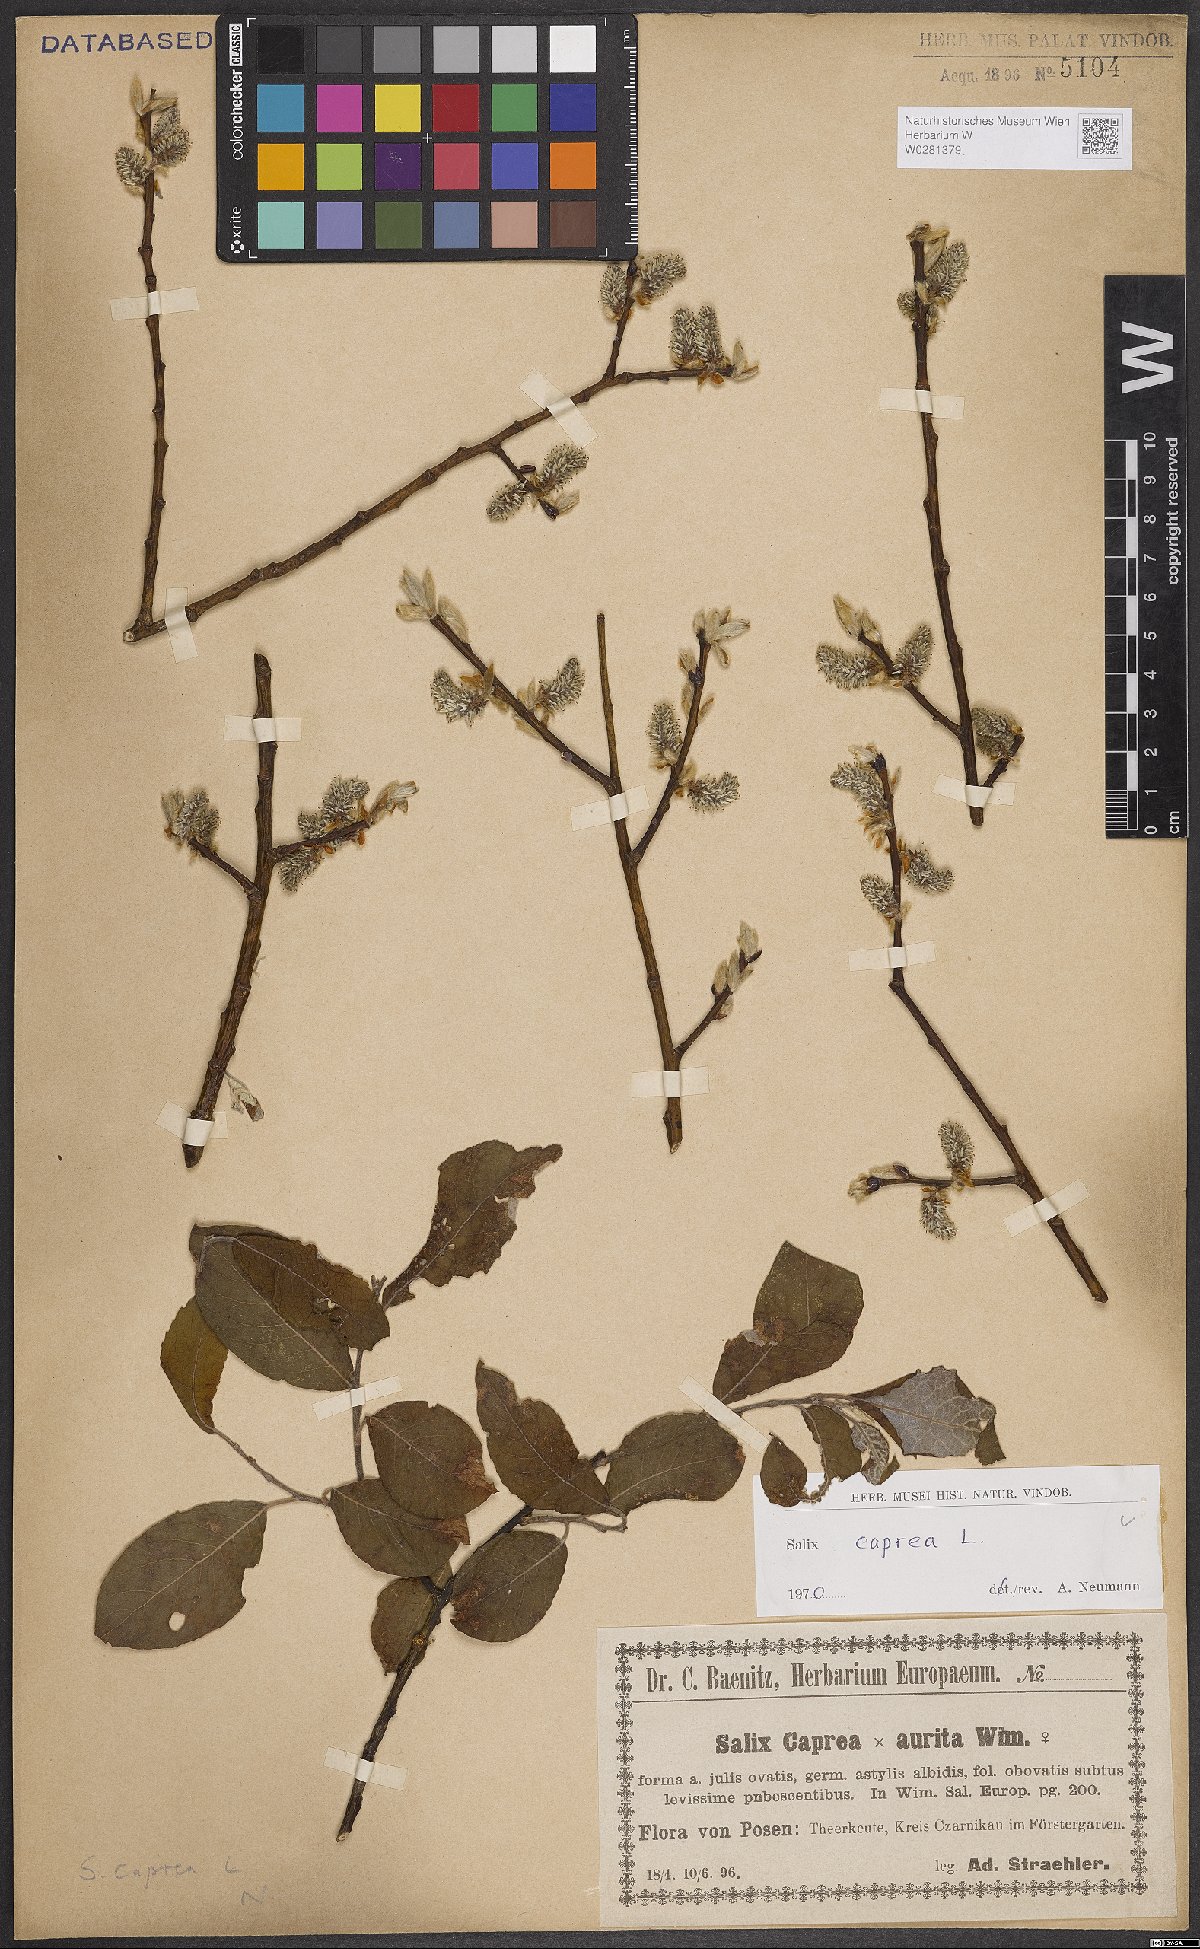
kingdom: Plantae
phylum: Tracheophyta
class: Magnoliopsida
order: Malpighiales
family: Salicaceae
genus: Salix
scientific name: Salix caprea
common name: Goat willow
